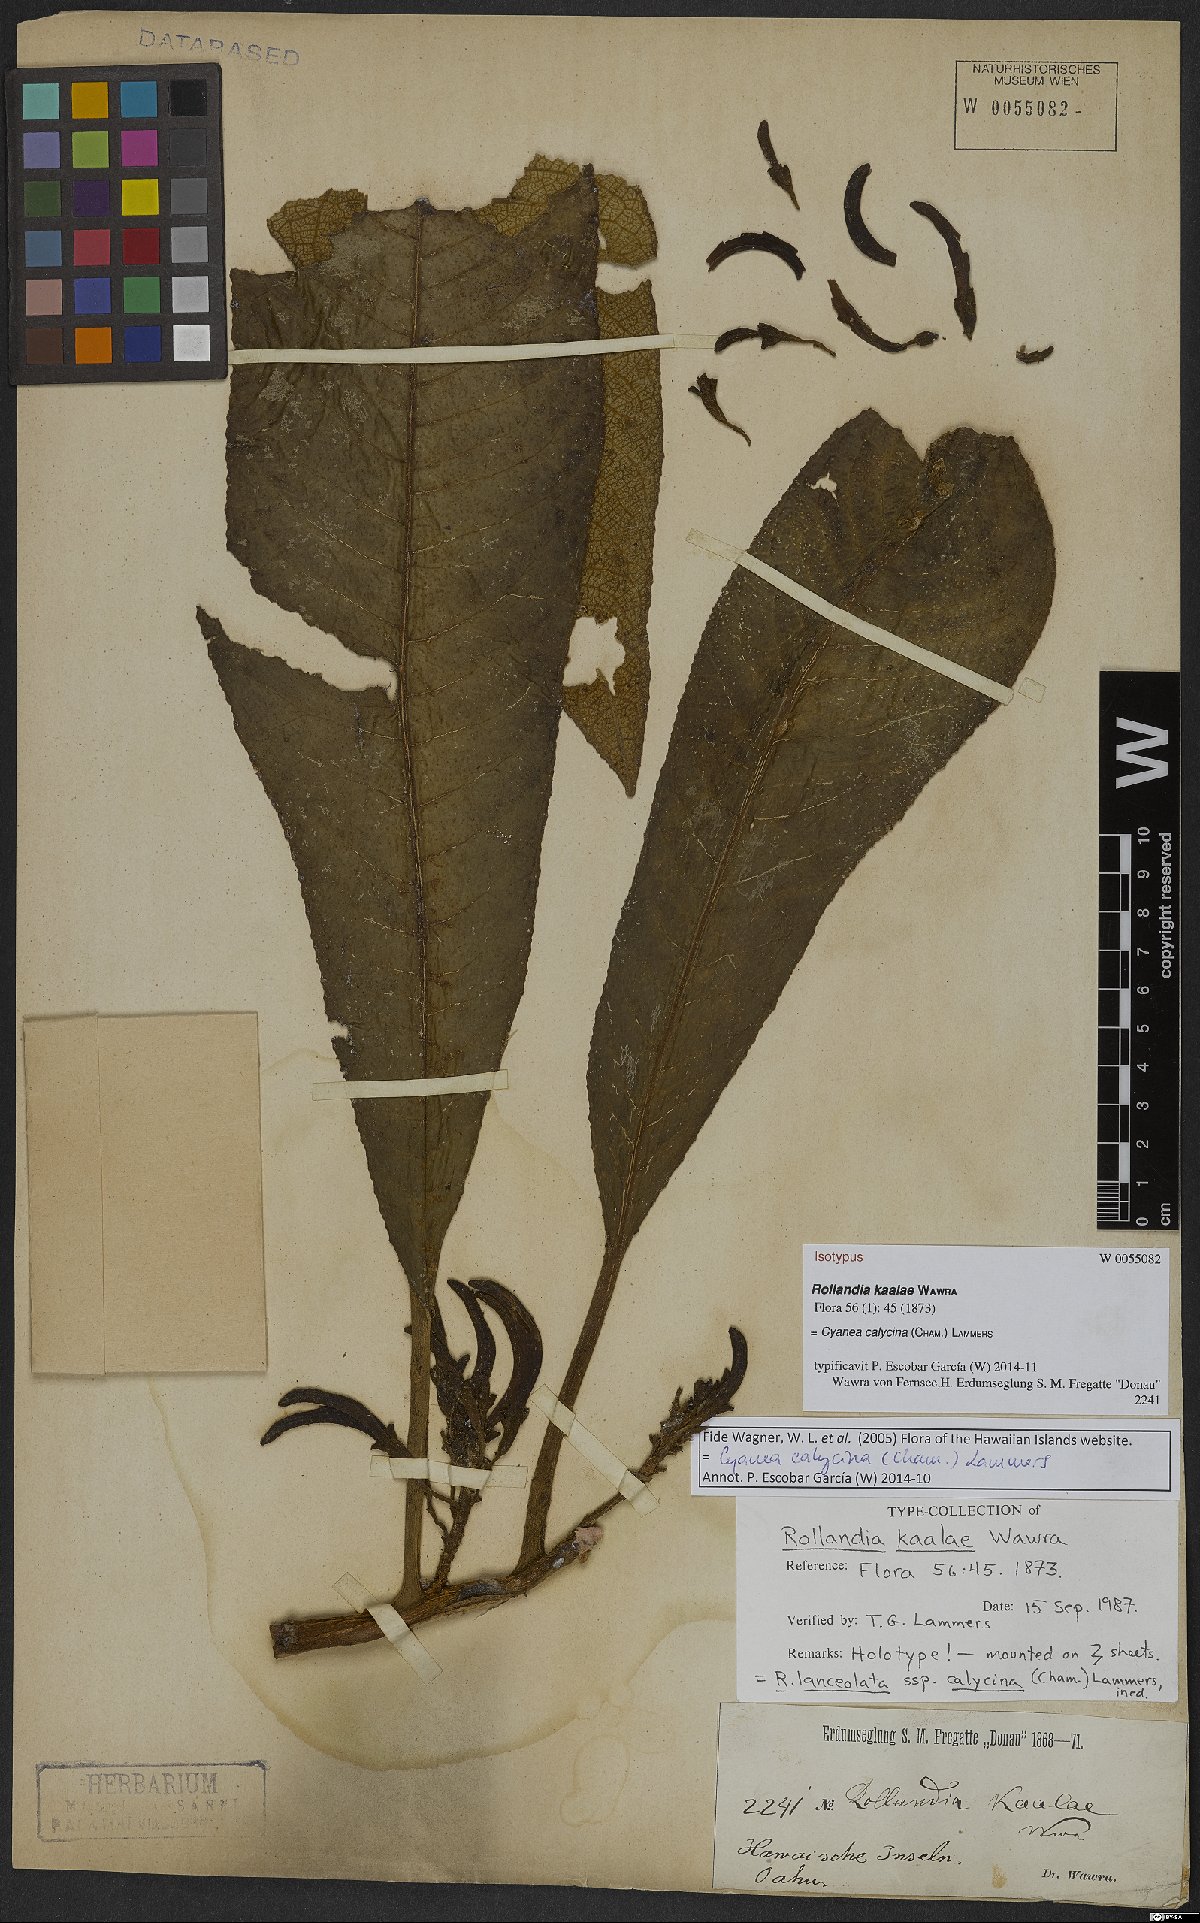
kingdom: Plantae
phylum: Tracheophyta
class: Magnoliopsida
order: Asterales
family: Campanulaceae
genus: Cyanea
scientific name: Cyanea calycina
